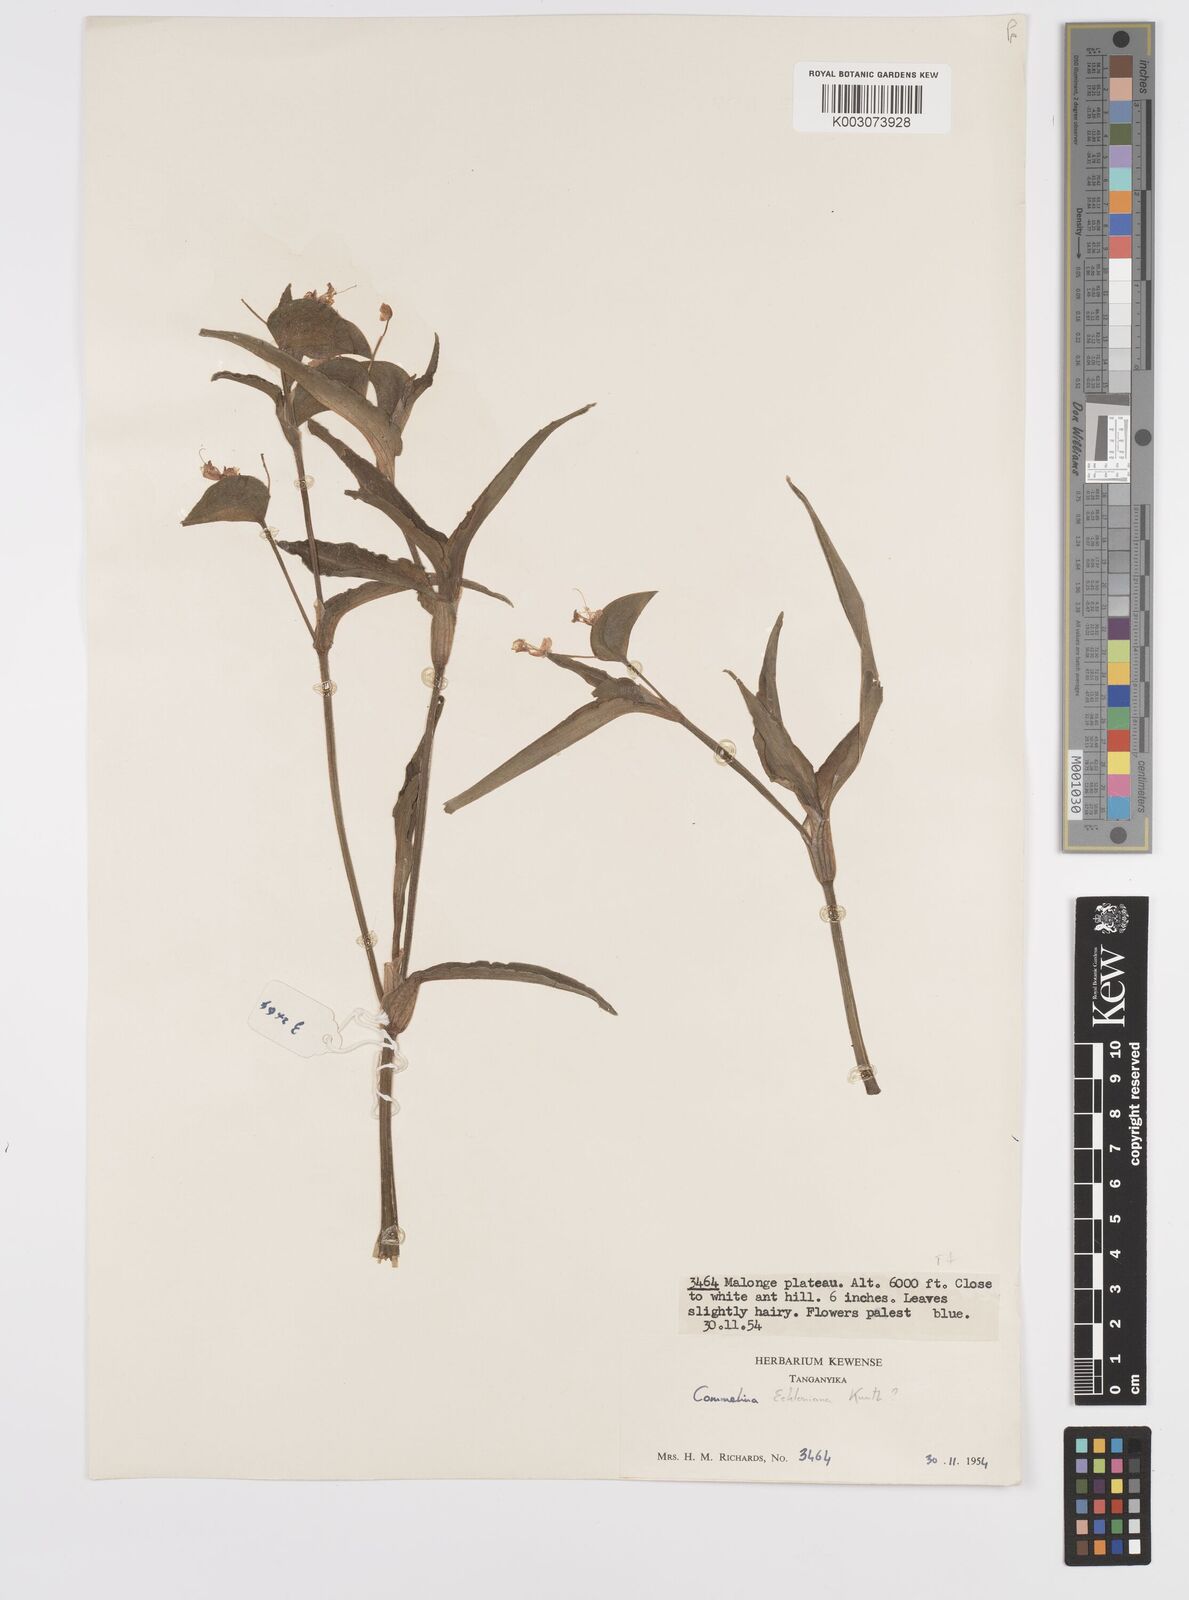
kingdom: Plantae
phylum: Tracheophyta
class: Liliopsida
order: Commelinales
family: Commelinaceae
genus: Commelina
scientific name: Commelina eckloniana
